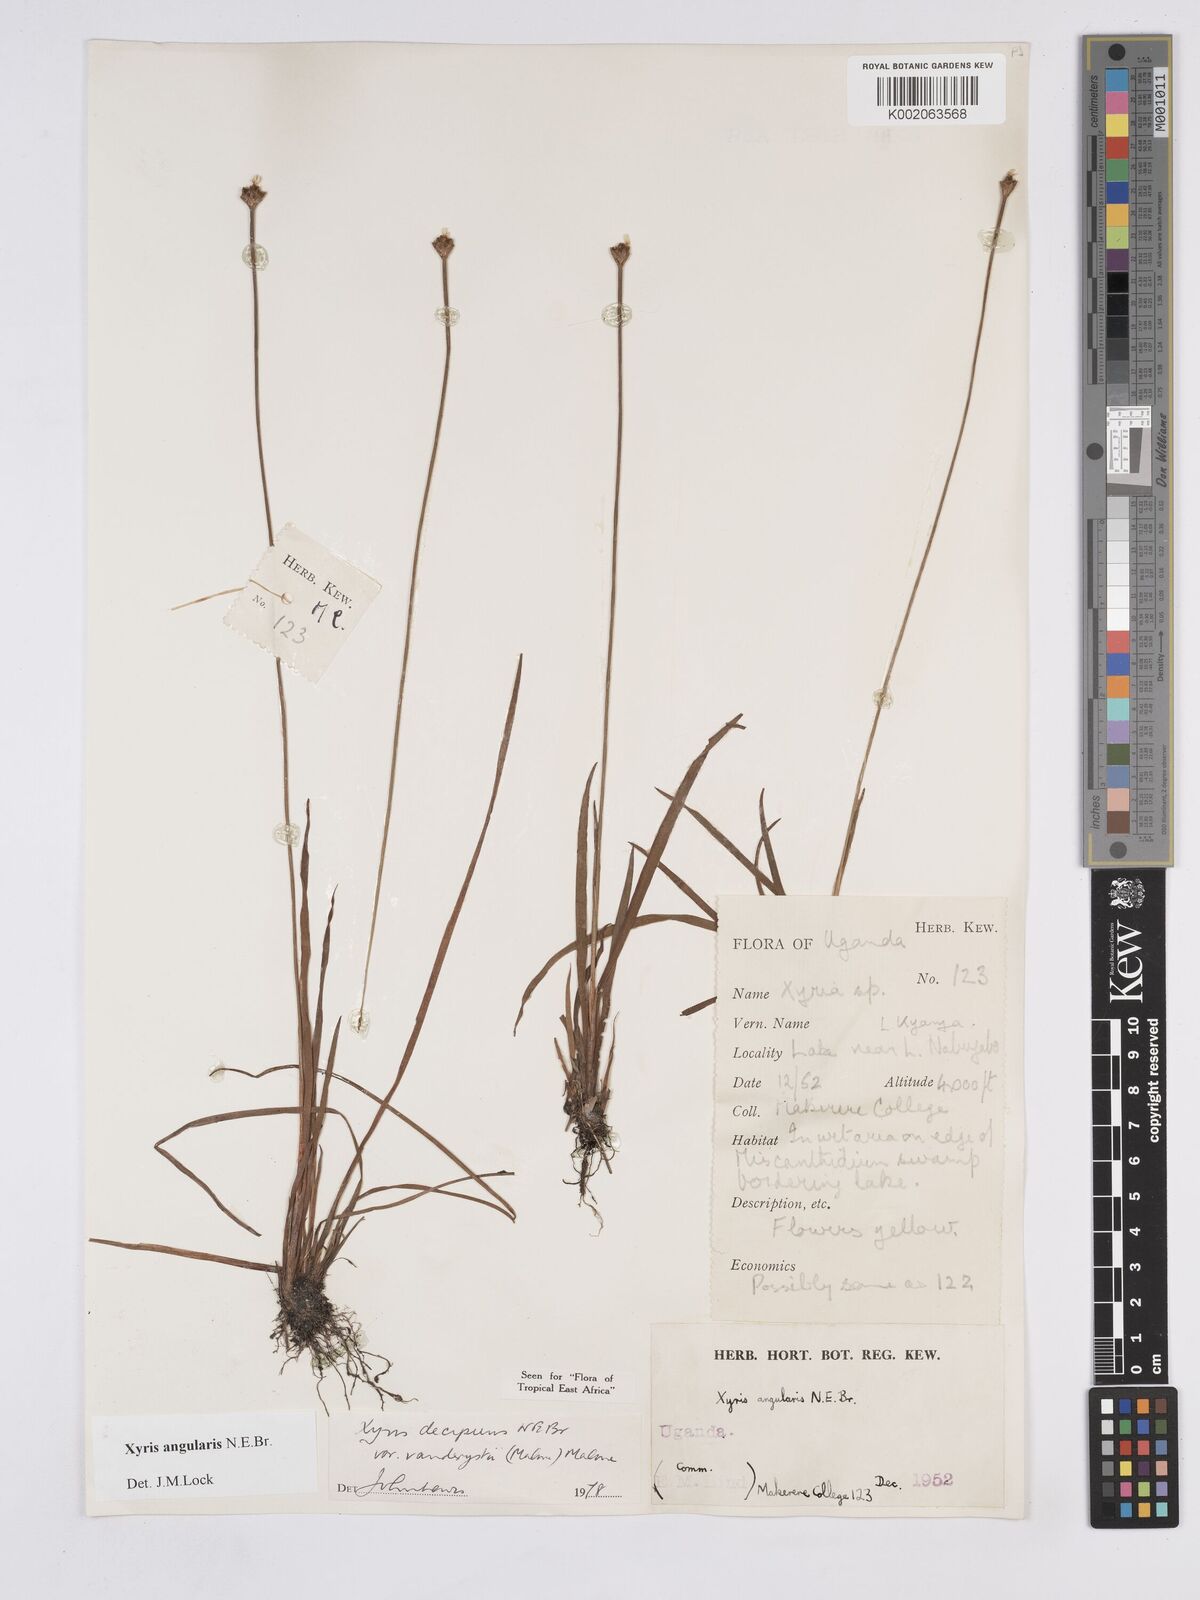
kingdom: Plantae
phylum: Tracheophyta
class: Liliopsida
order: Poales
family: Xyridaceae
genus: Xyris
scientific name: Xyris angularis
